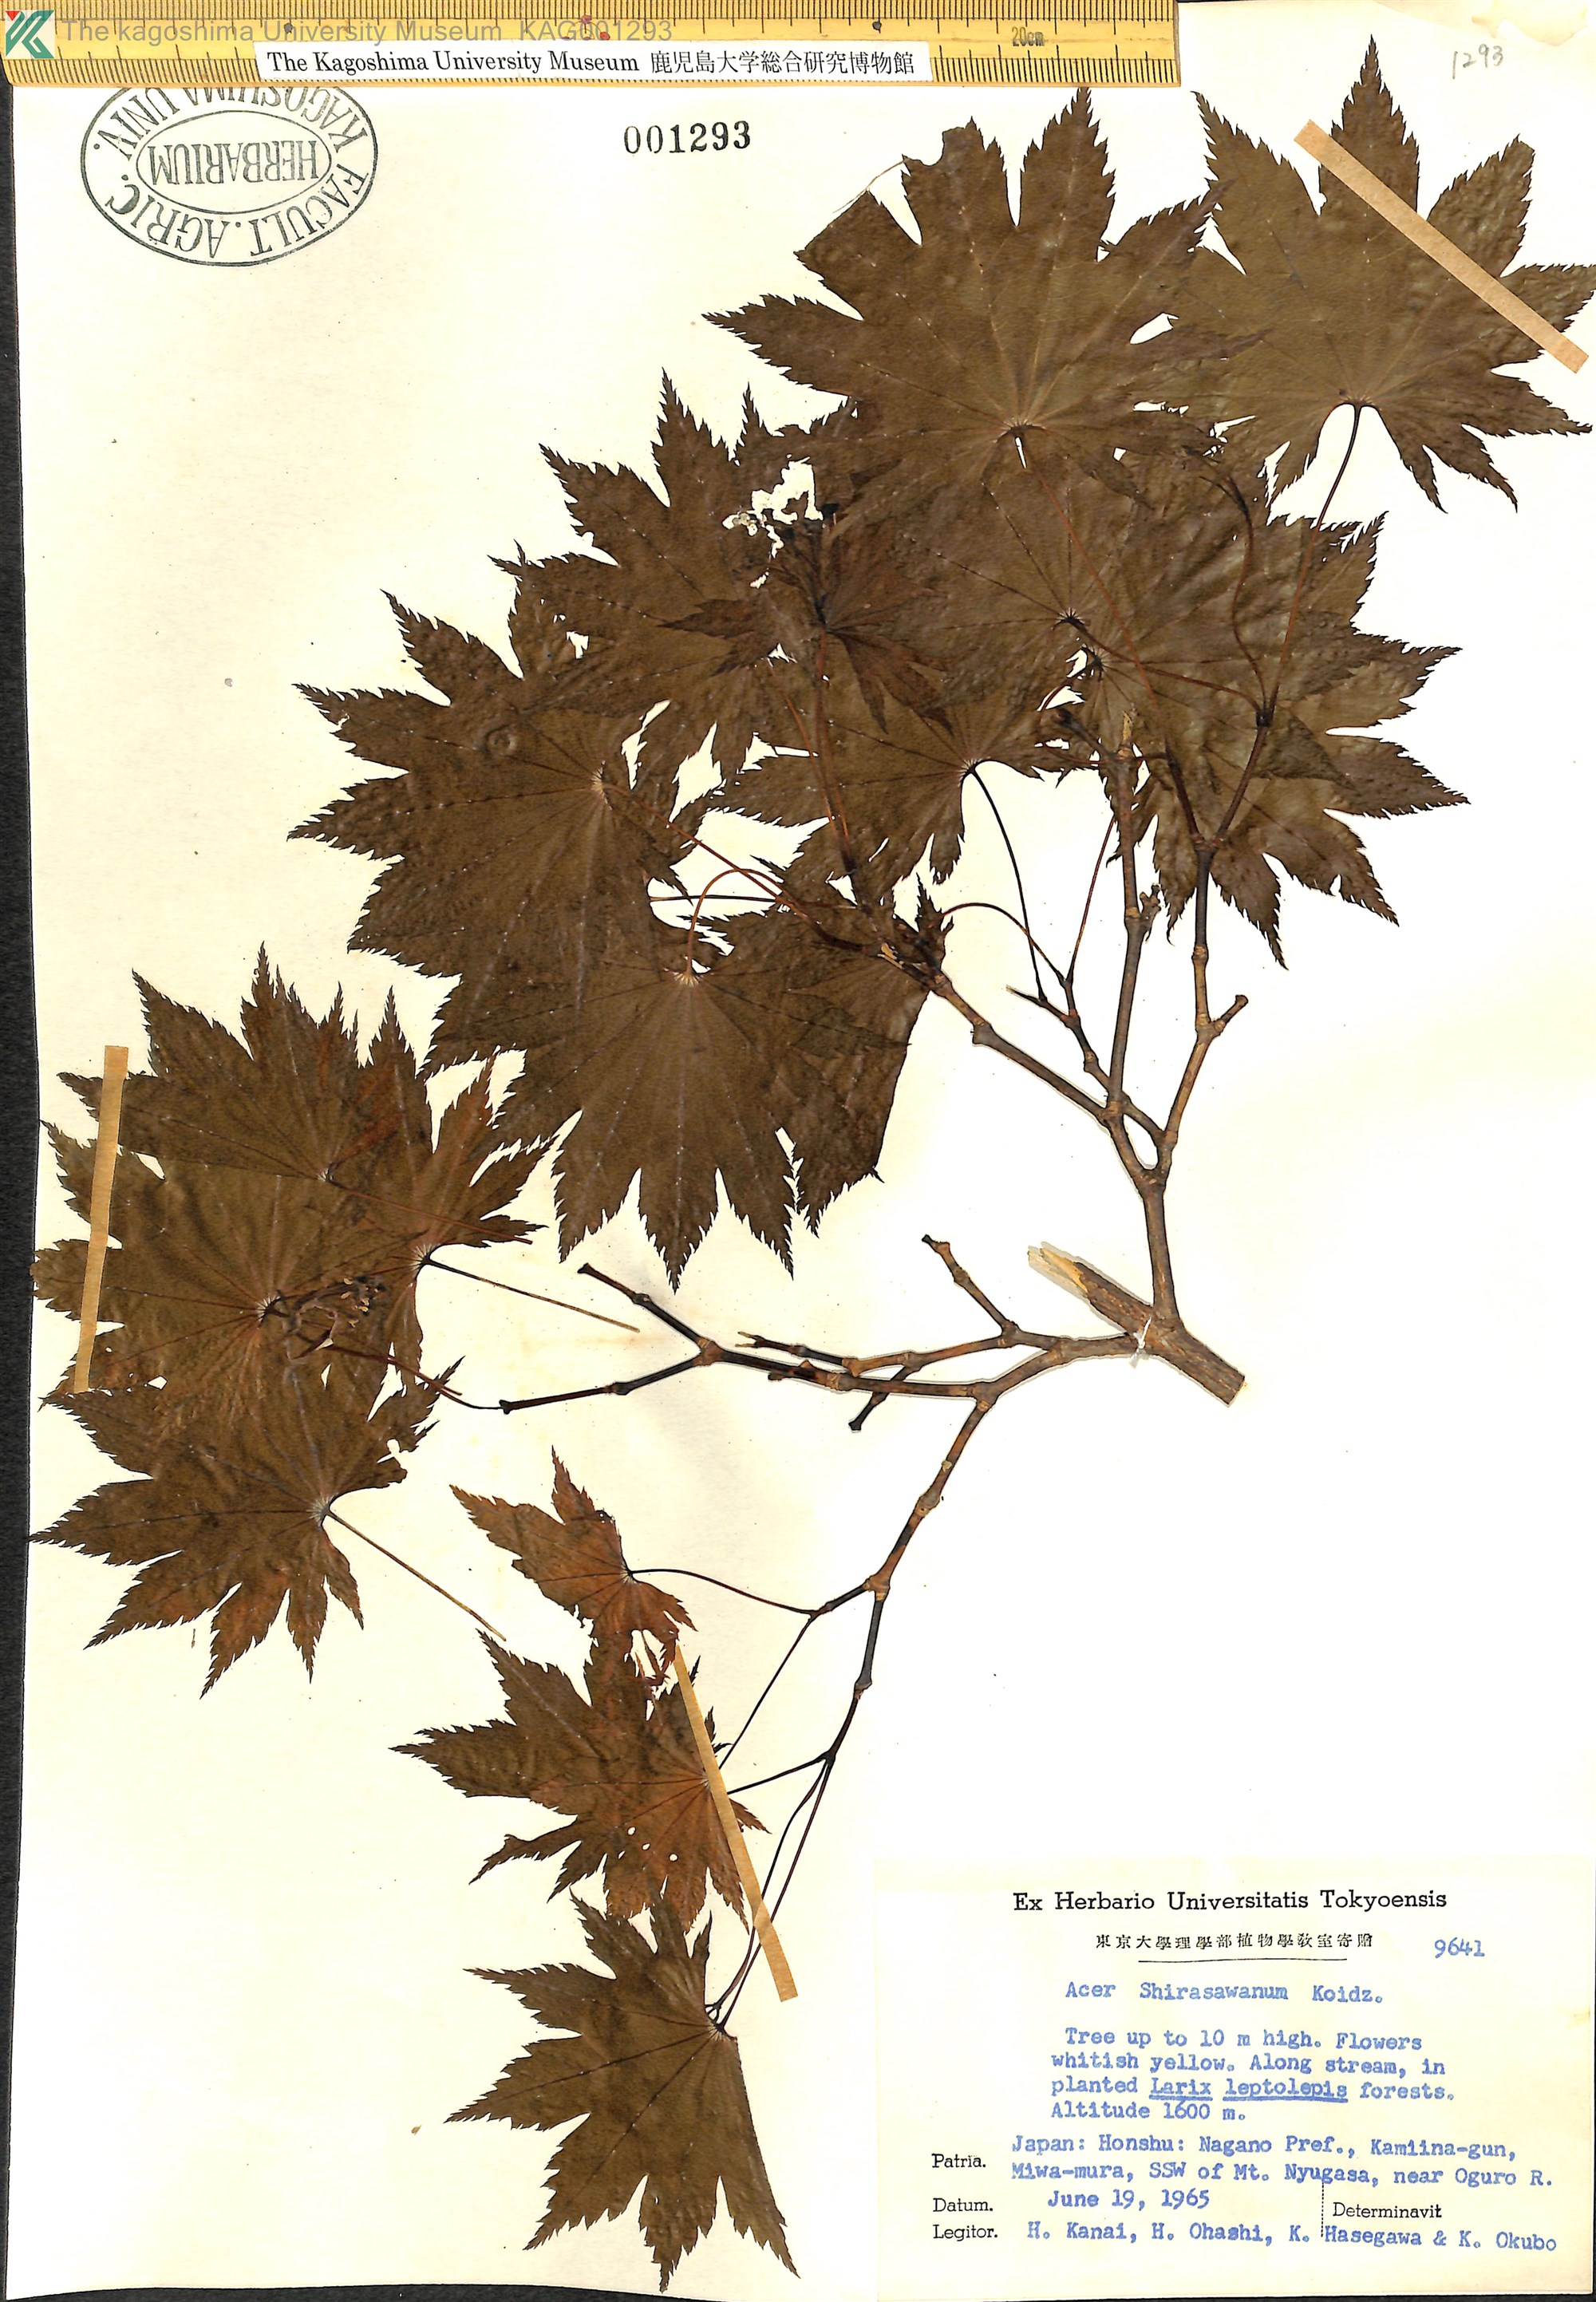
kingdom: Plantae
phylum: Tracheophyta
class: Magnoliopsida
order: Sapindales
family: Sapindaceae
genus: Acer
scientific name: Acer shirasawanum
